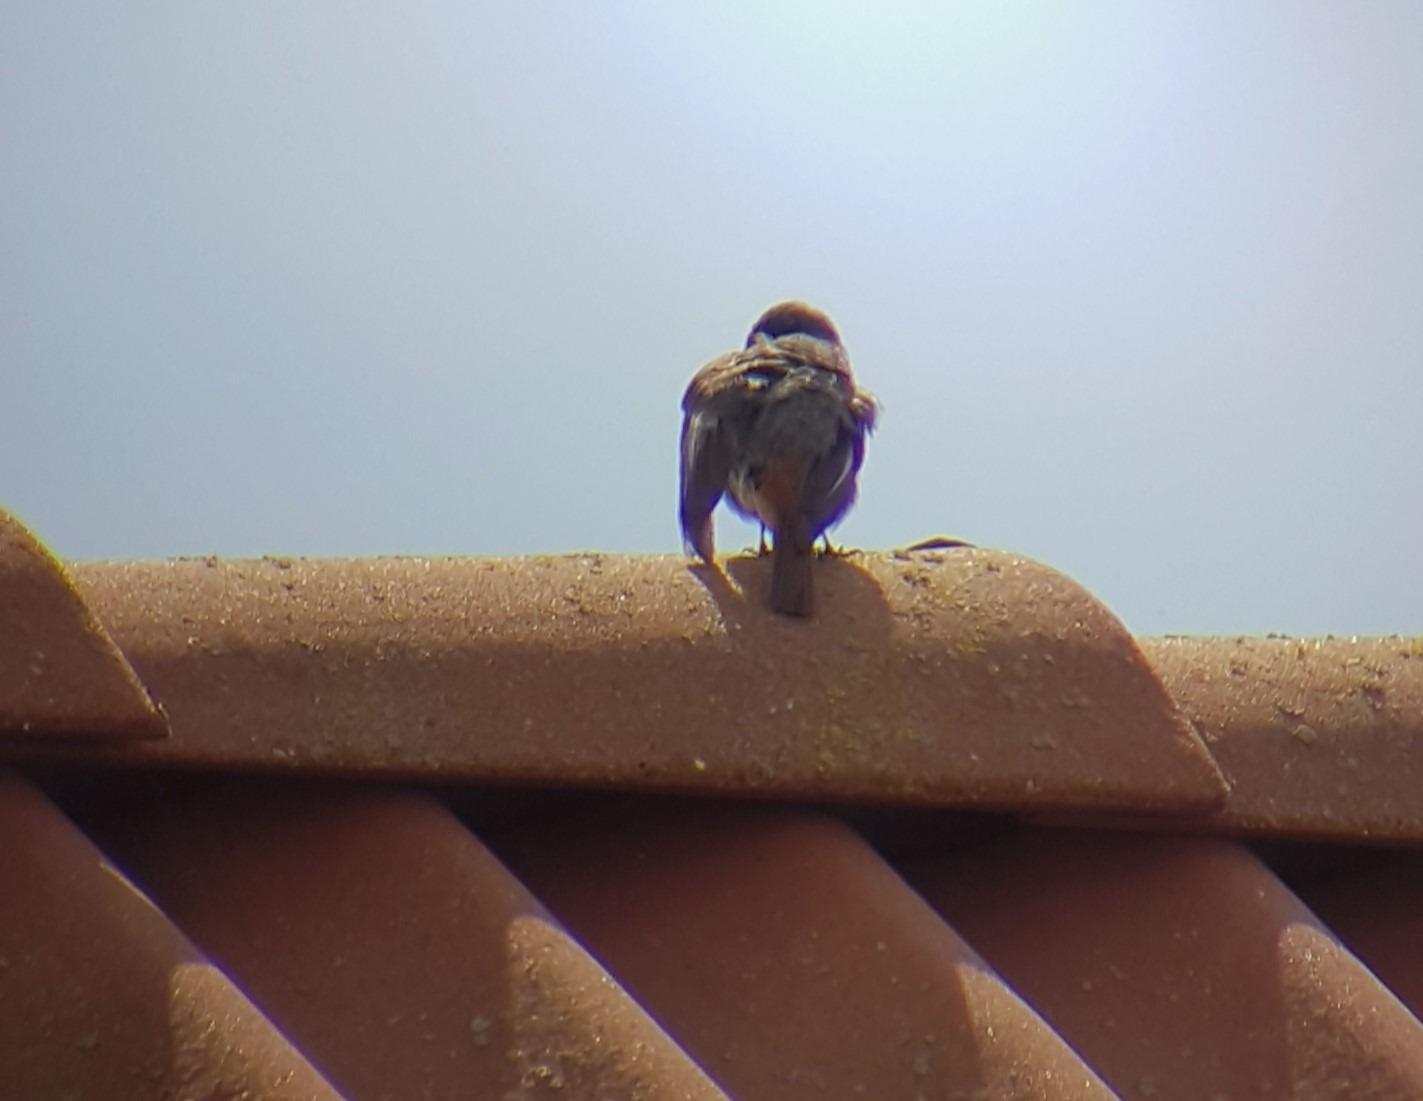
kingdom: Animalia
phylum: Chordata
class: Aves
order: Passeriformes
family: Muscicapidae
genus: Phoenicurus
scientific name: Phoenicurus ochruros
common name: Husrødstjert
